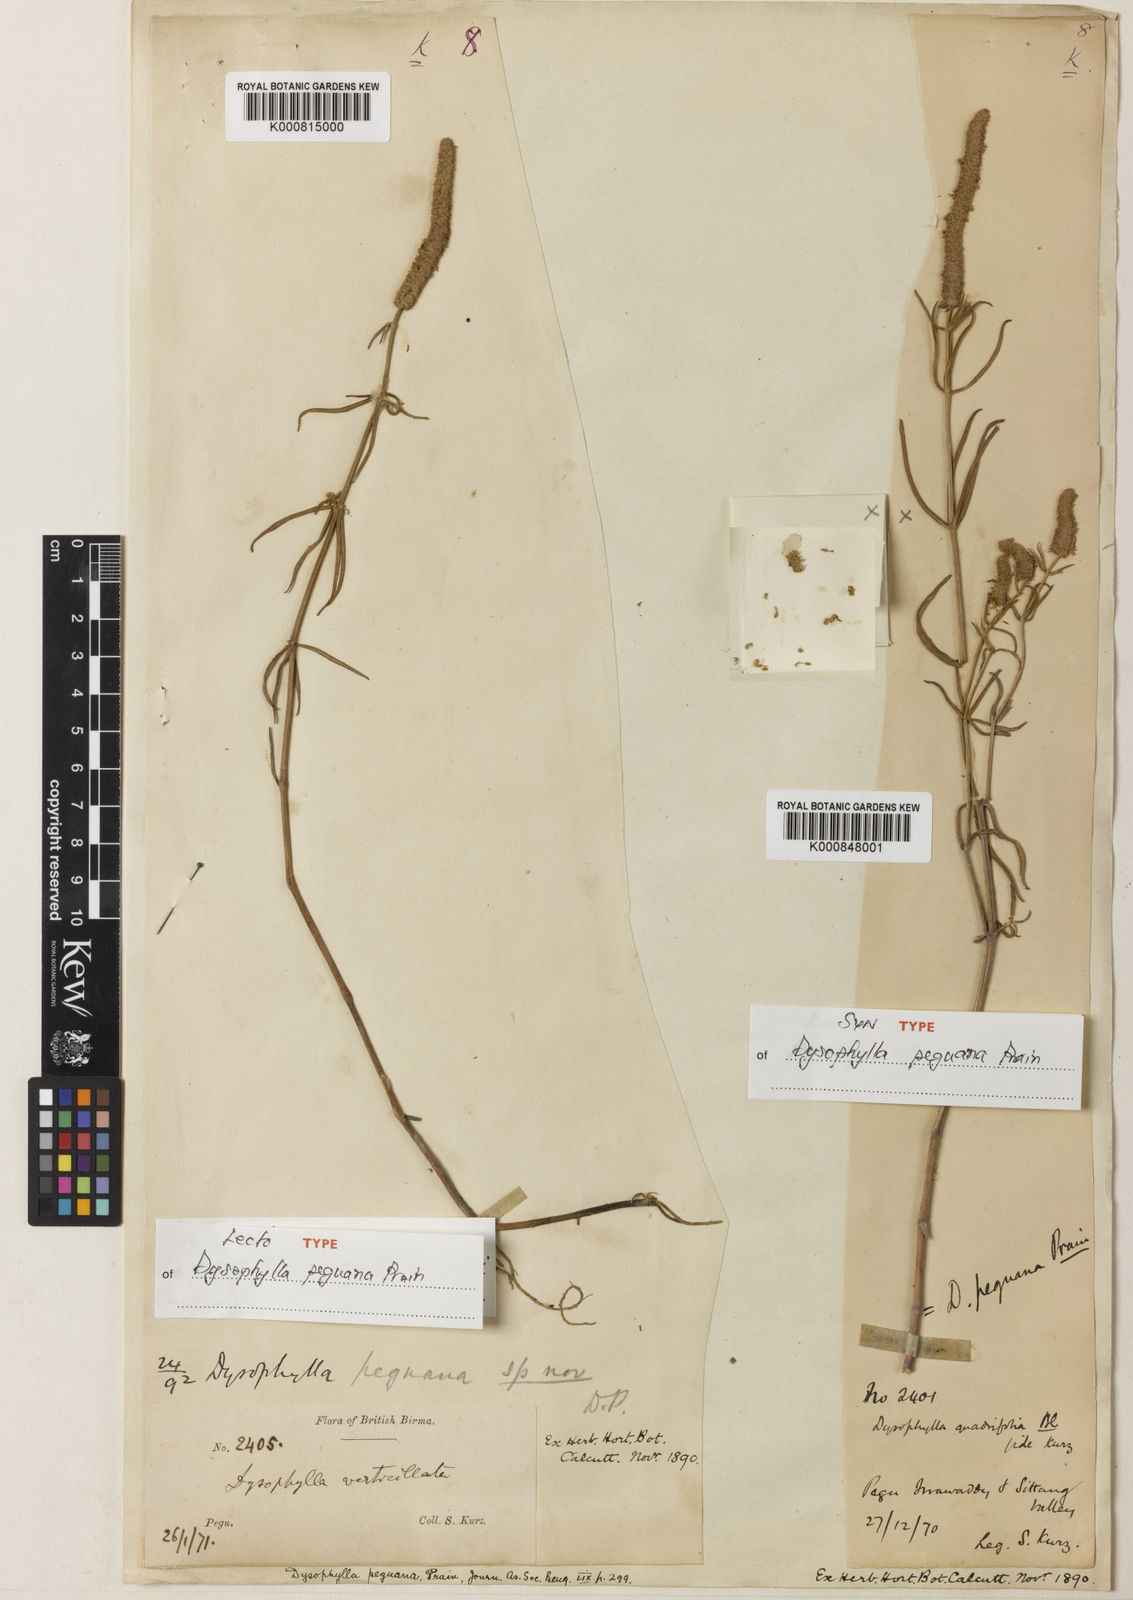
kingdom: Plantae
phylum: Tracheophyta
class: Magnoliopsida
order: Lamiales
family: Lamiaceae
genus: Pogostemon
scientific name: Pogostemon peguanus
